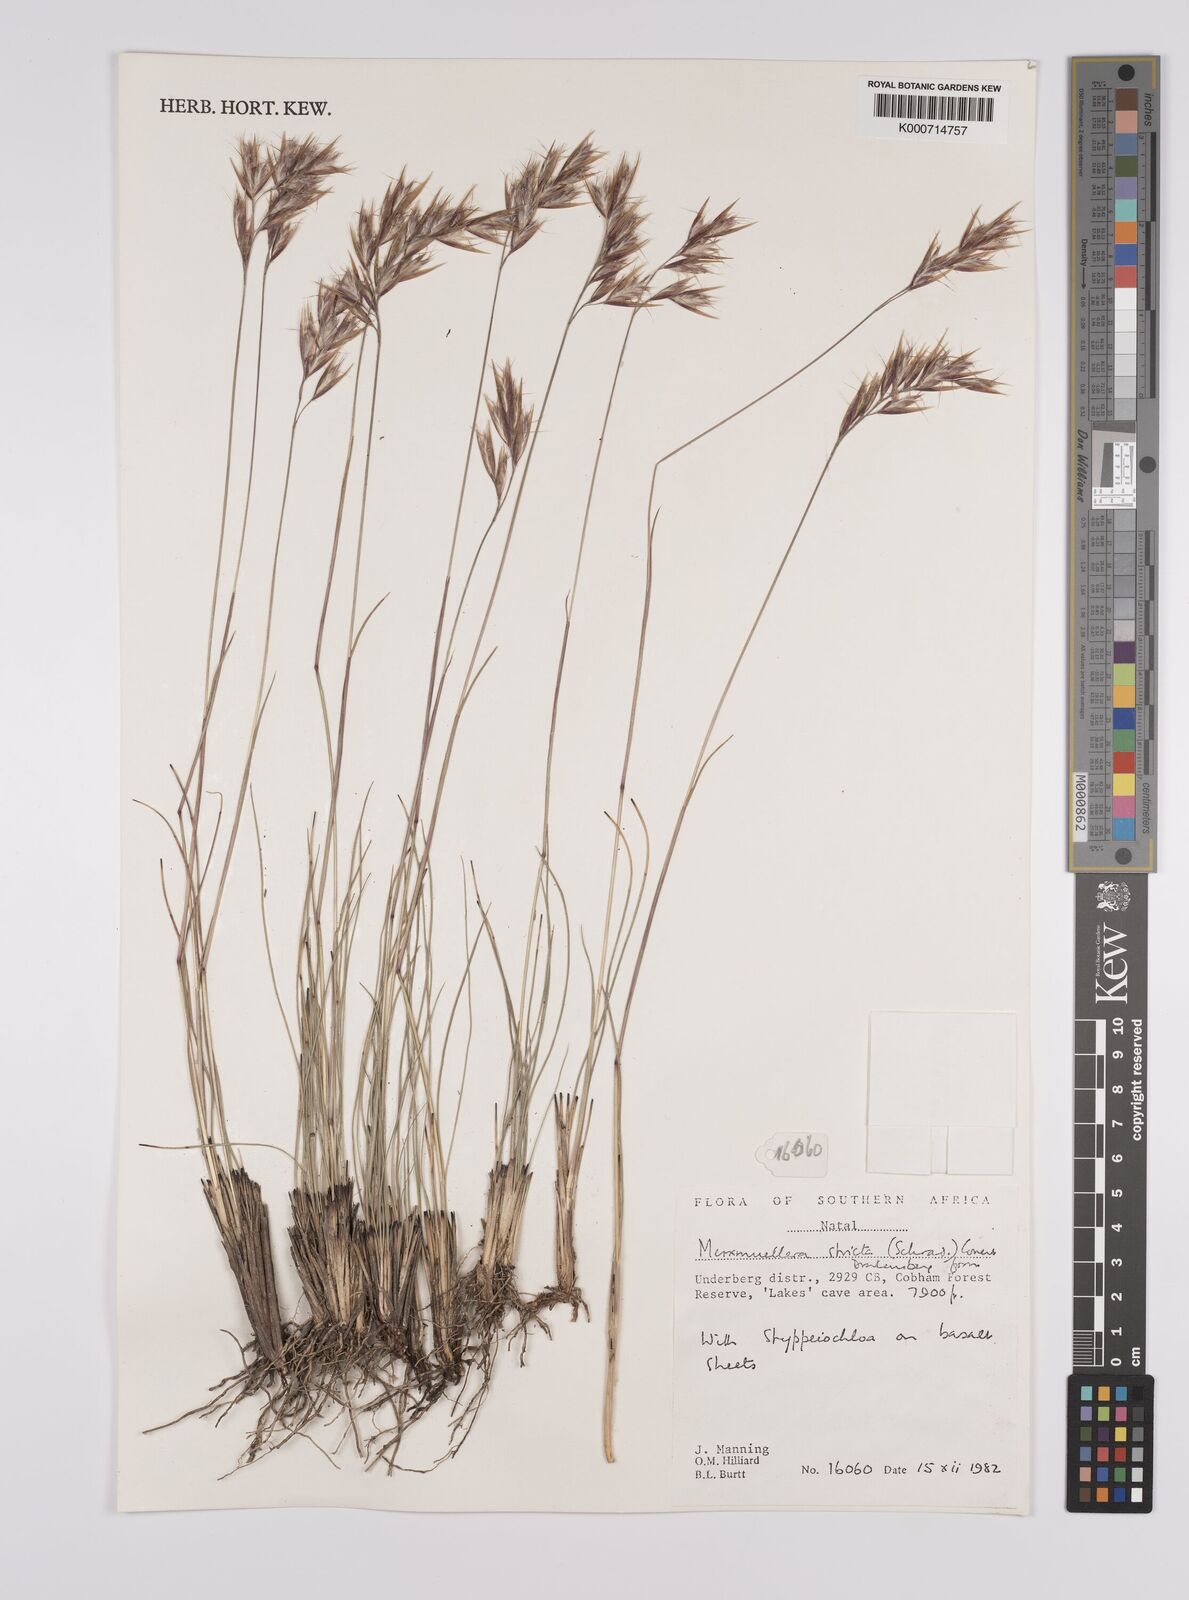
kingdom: Plantae
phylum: Tracheophyta
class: Liliopsida
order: Poales
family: Poaceae
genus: Rytidosperma
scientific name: Rytidosperma
